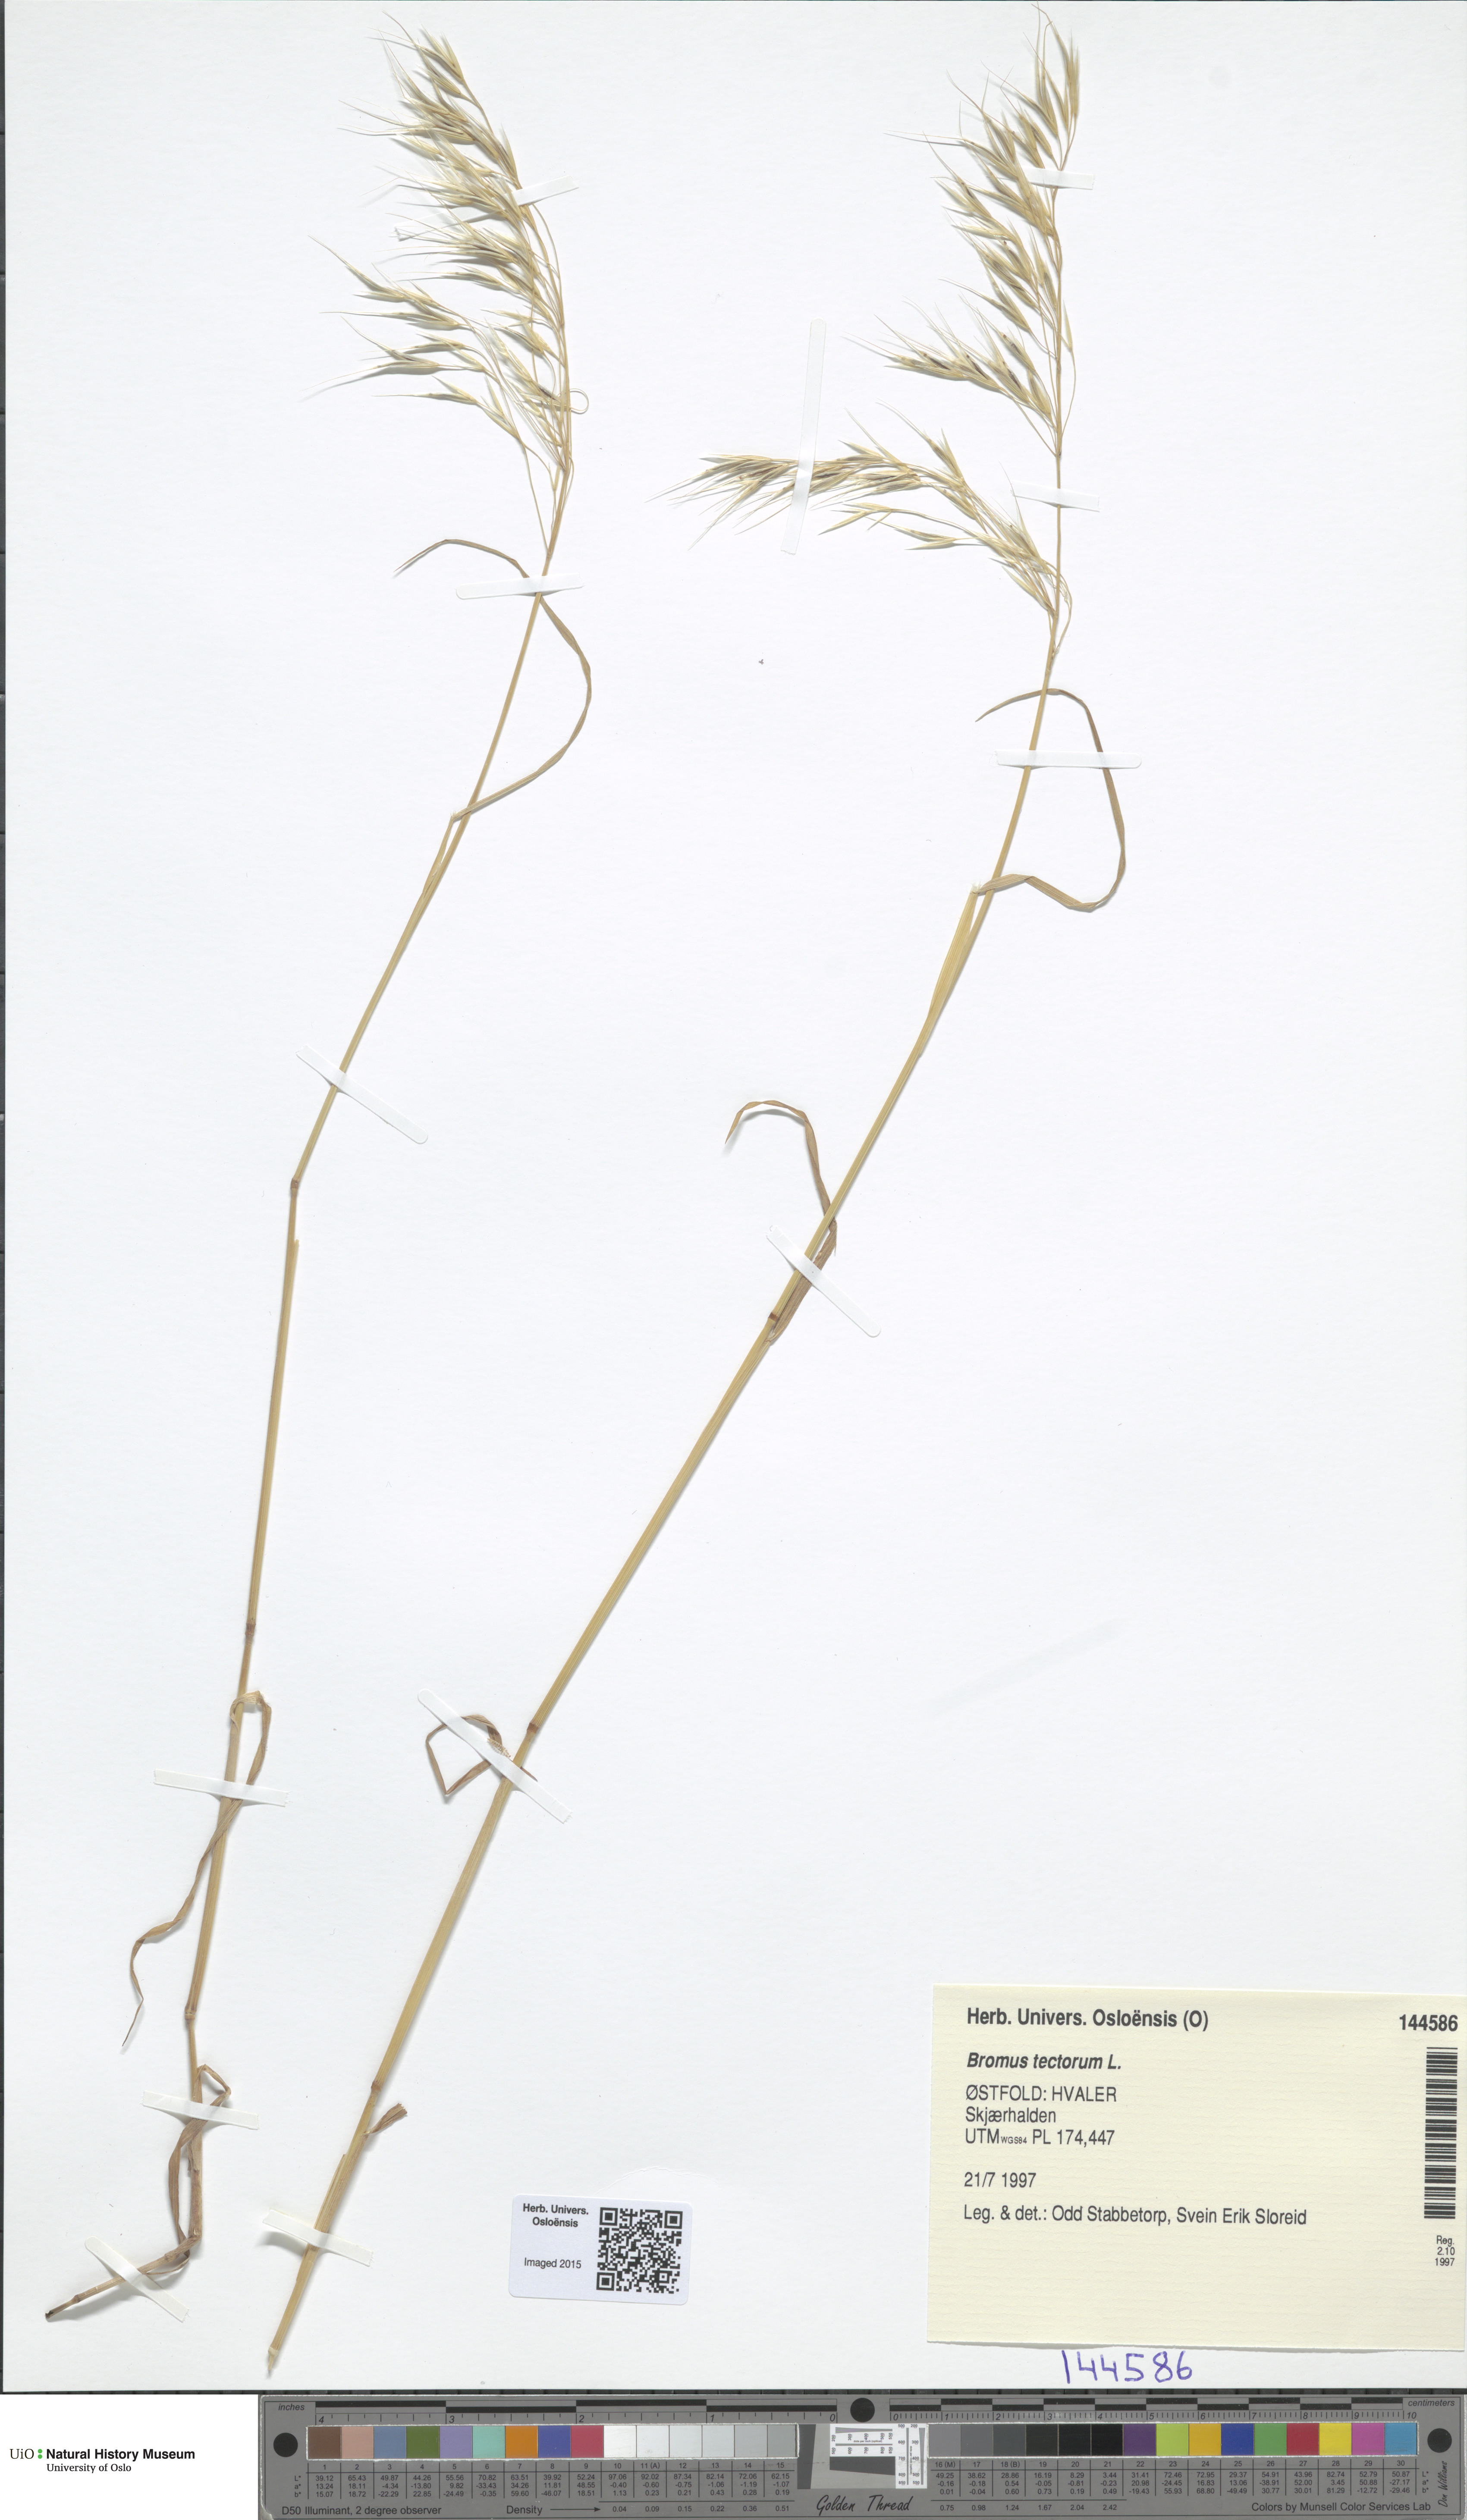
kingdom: Plantae
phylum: Tracheophyta
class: Liliopsida
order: Poales
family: Poaceae
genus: Bromus
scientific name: Bromus tectorum
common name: Cheatgrass
